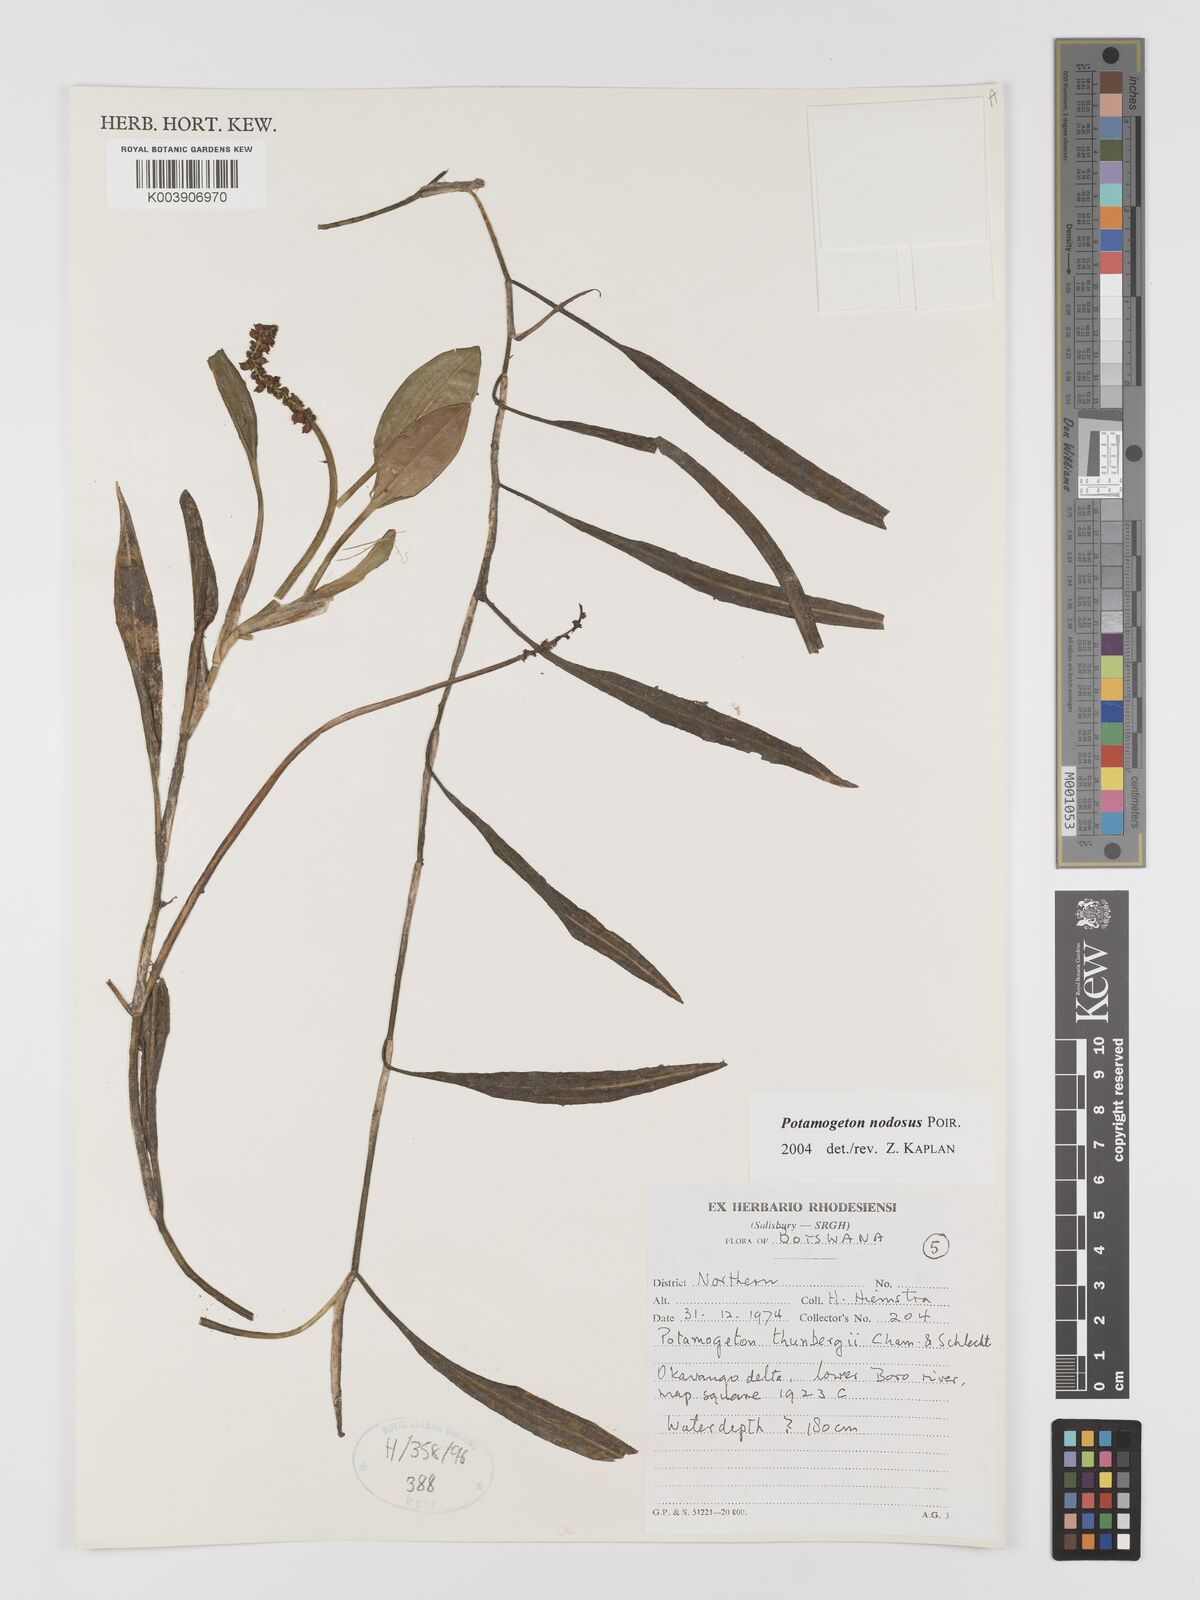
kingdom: Plantae
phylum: Tracheophyta
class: Liliopsida
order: Alismatales
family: Potamogetonaceae
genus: Potamogeton
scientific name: Potamogeton nodosus
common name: Loddon pondweed
